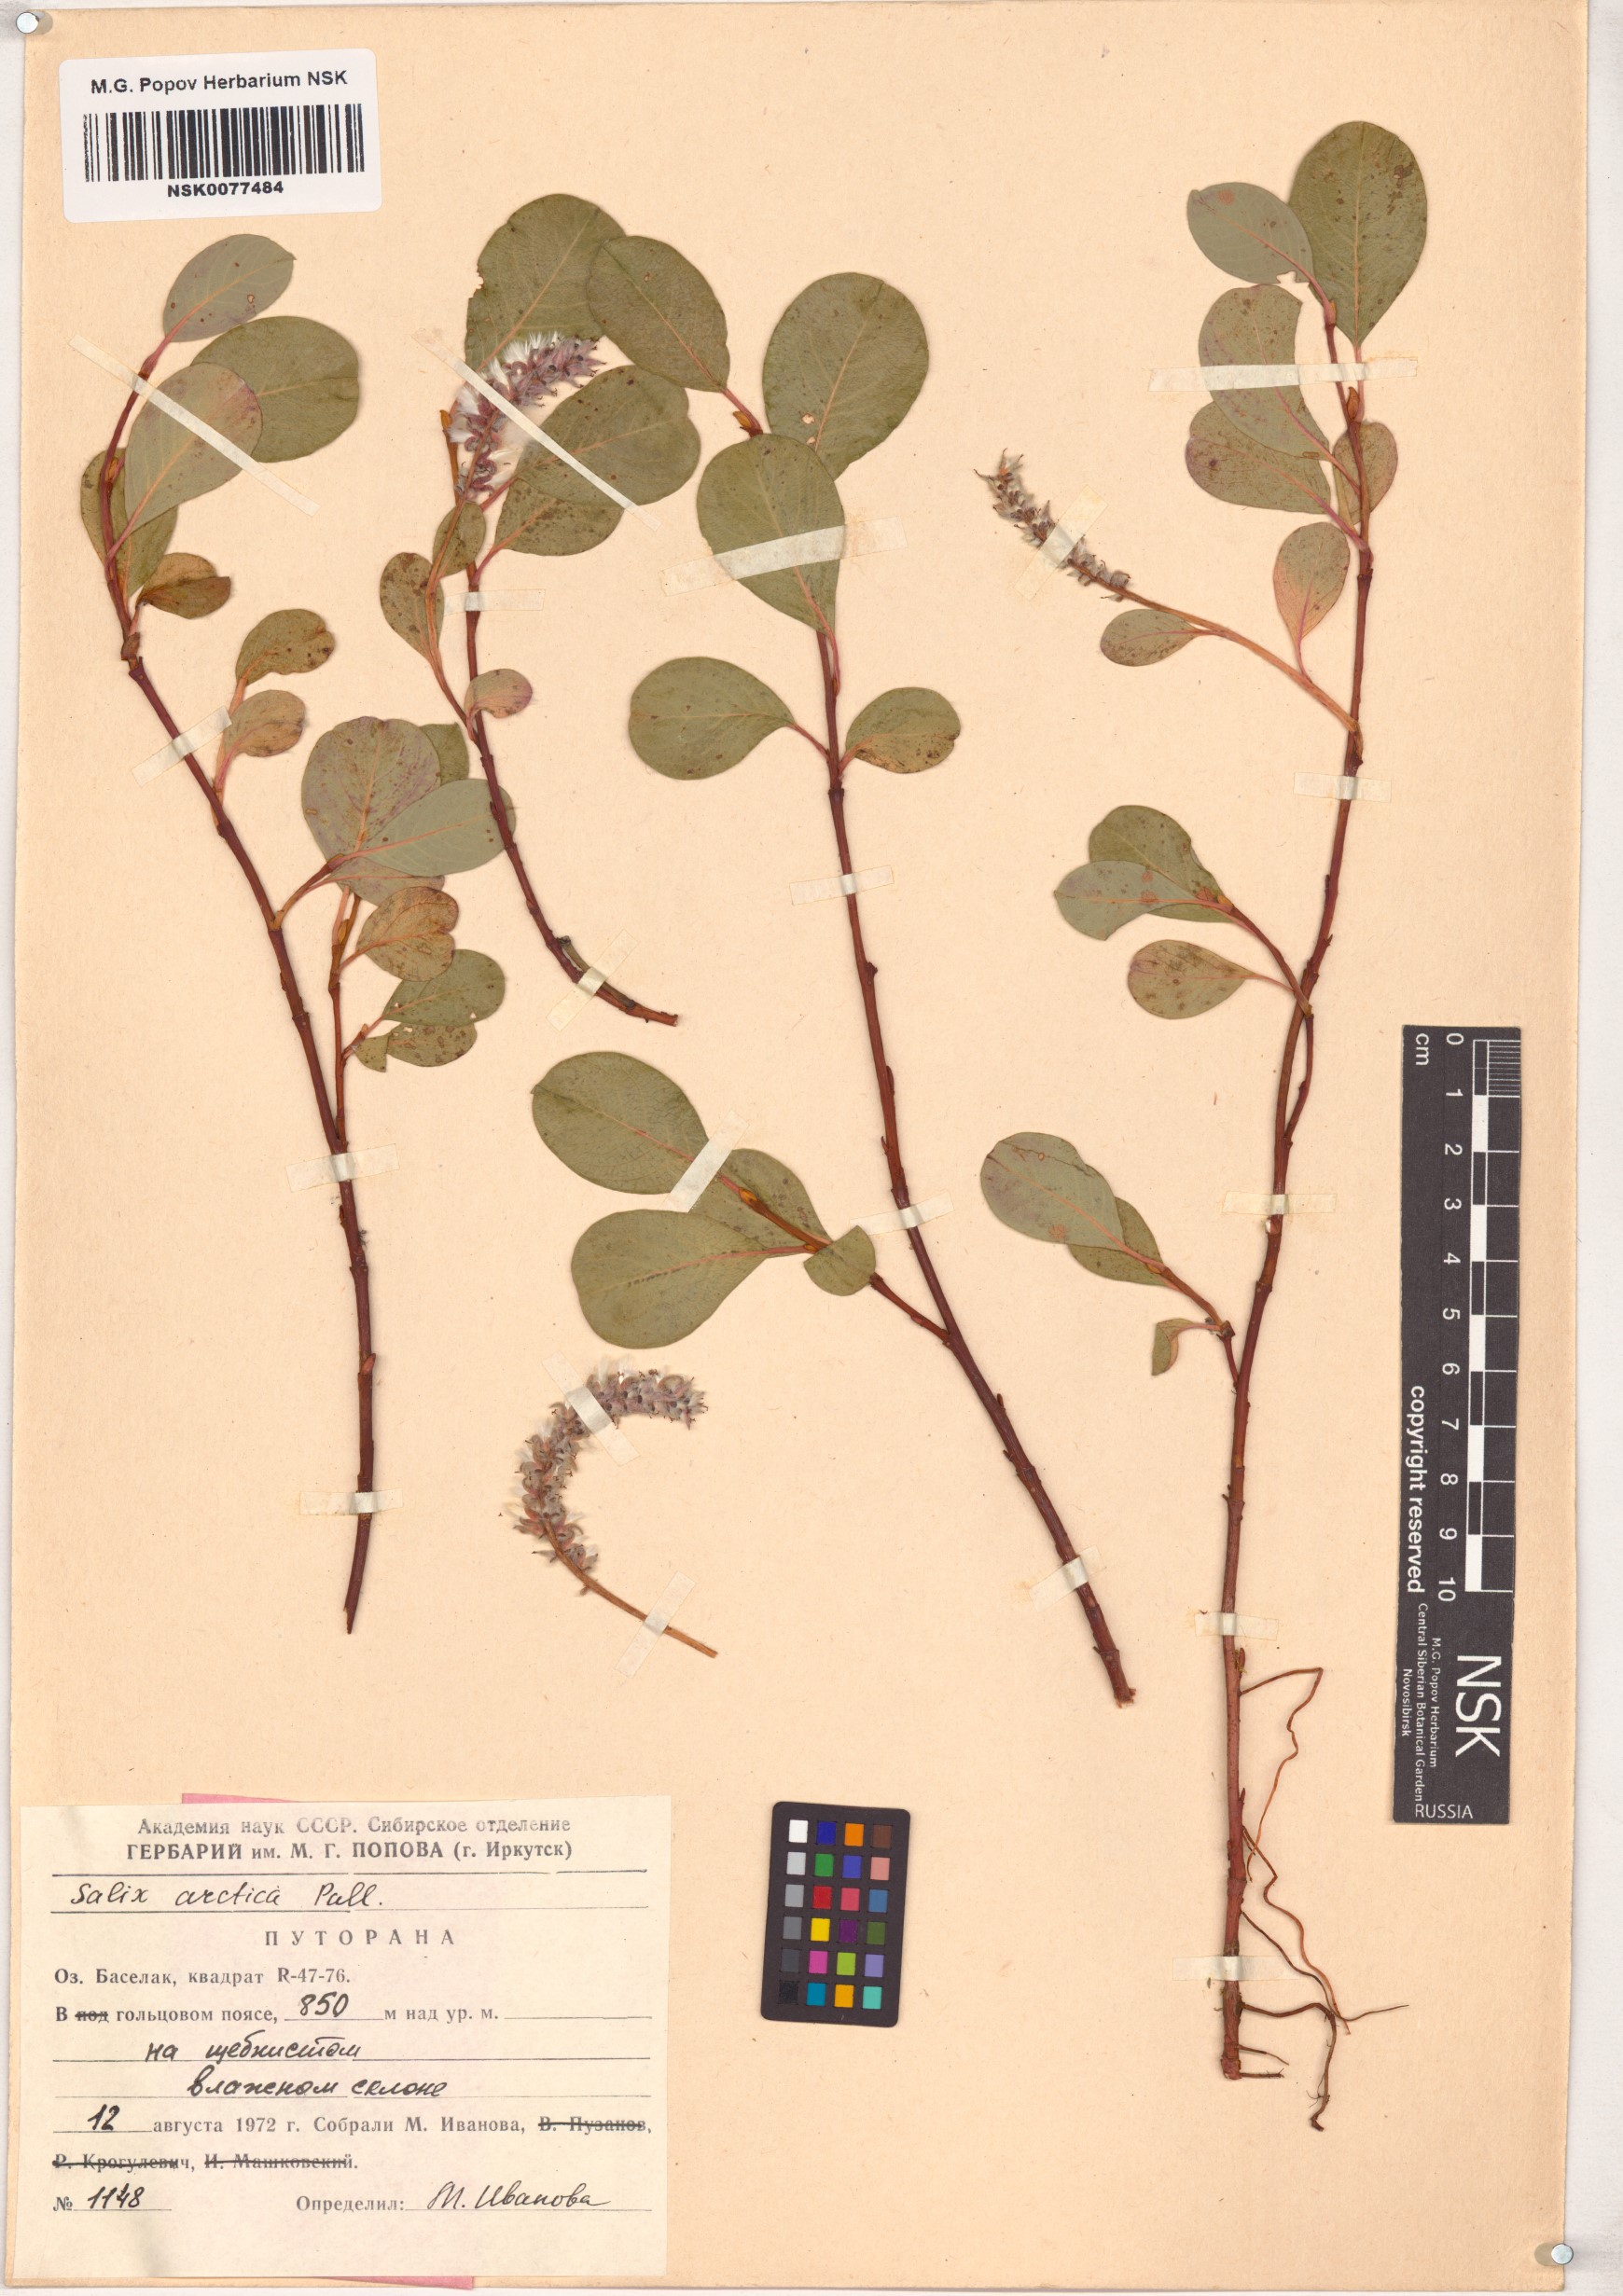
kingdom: Plantae
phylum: Tracheophyta
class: Magnoliopsida
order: Malpighiales
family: Salicaceae
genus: Salix
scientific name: Salix arctica
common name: Arctic willow
